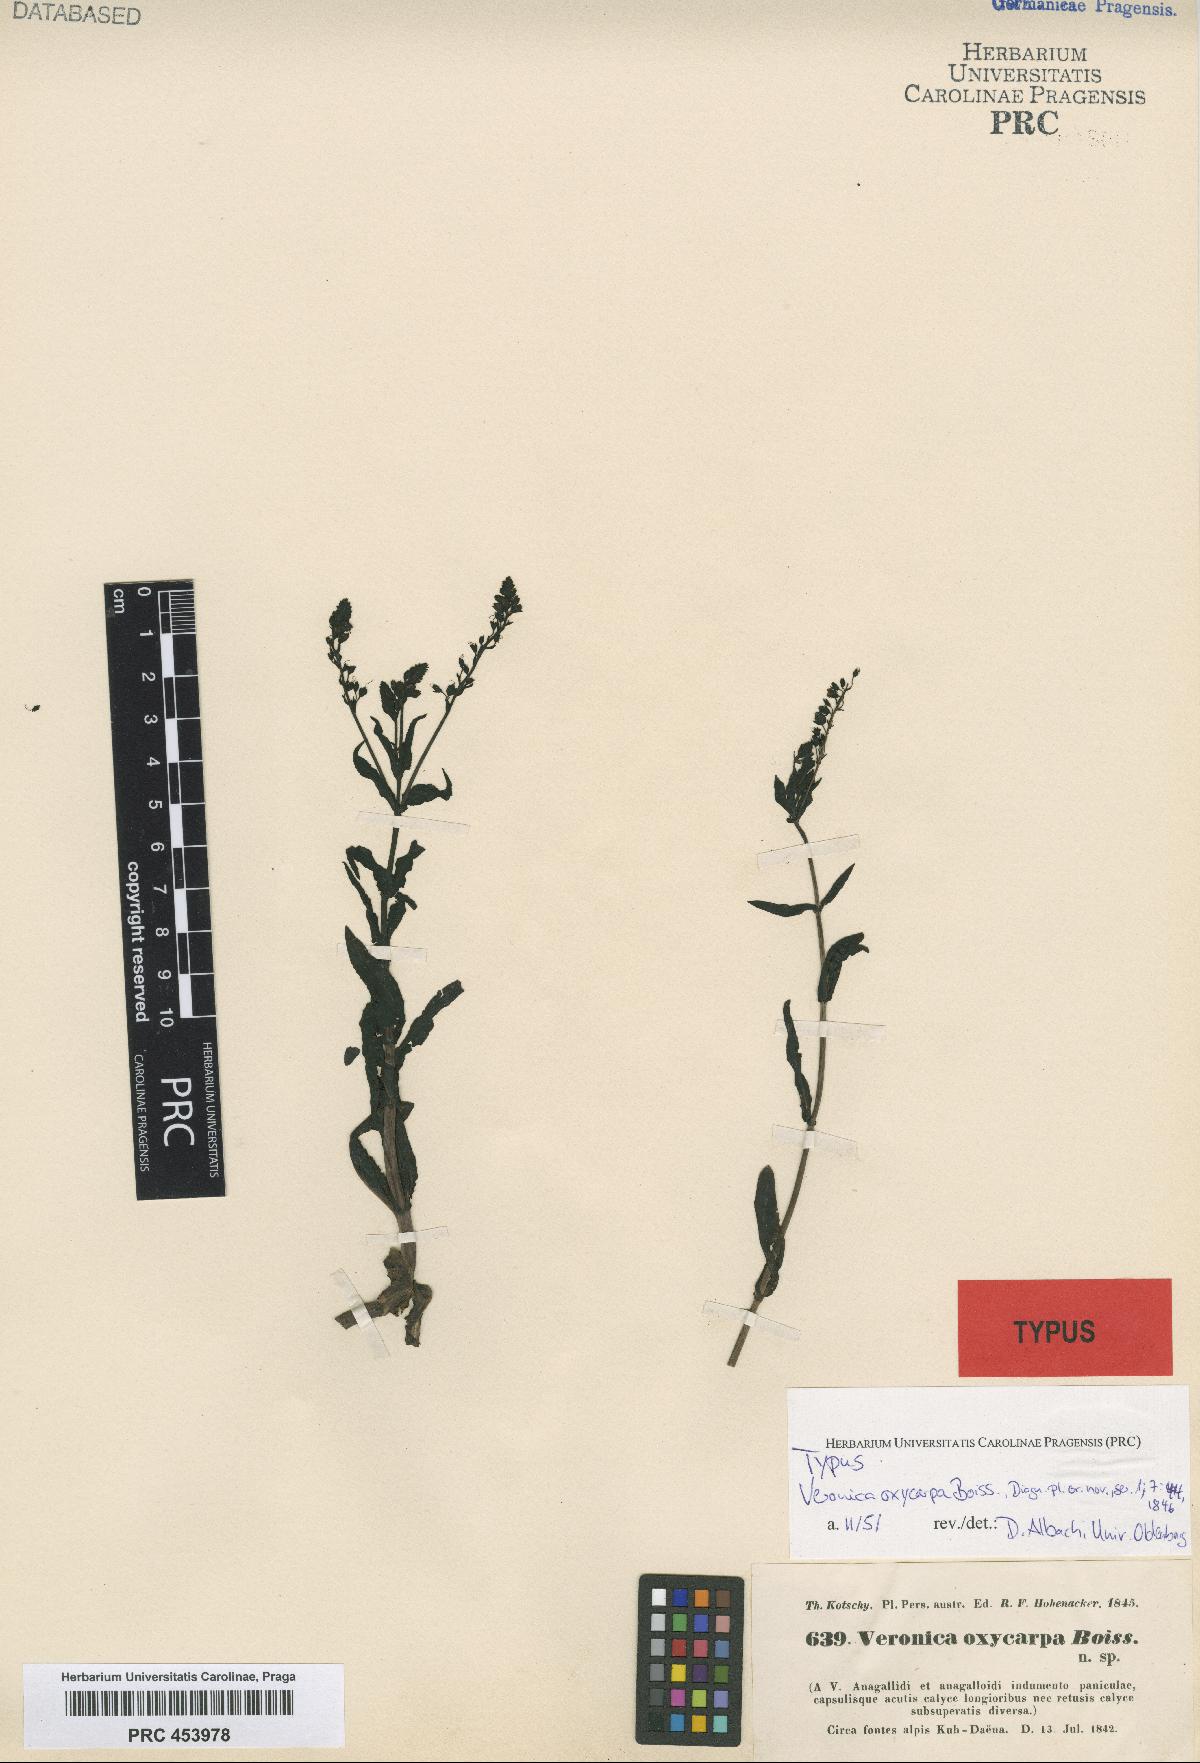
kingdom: Plantae
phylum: Tracheophyta
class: Magnoliopsida
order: Lamiales
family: Plantaginaceae
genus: Veronica
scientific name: Veronica oxycarpa
